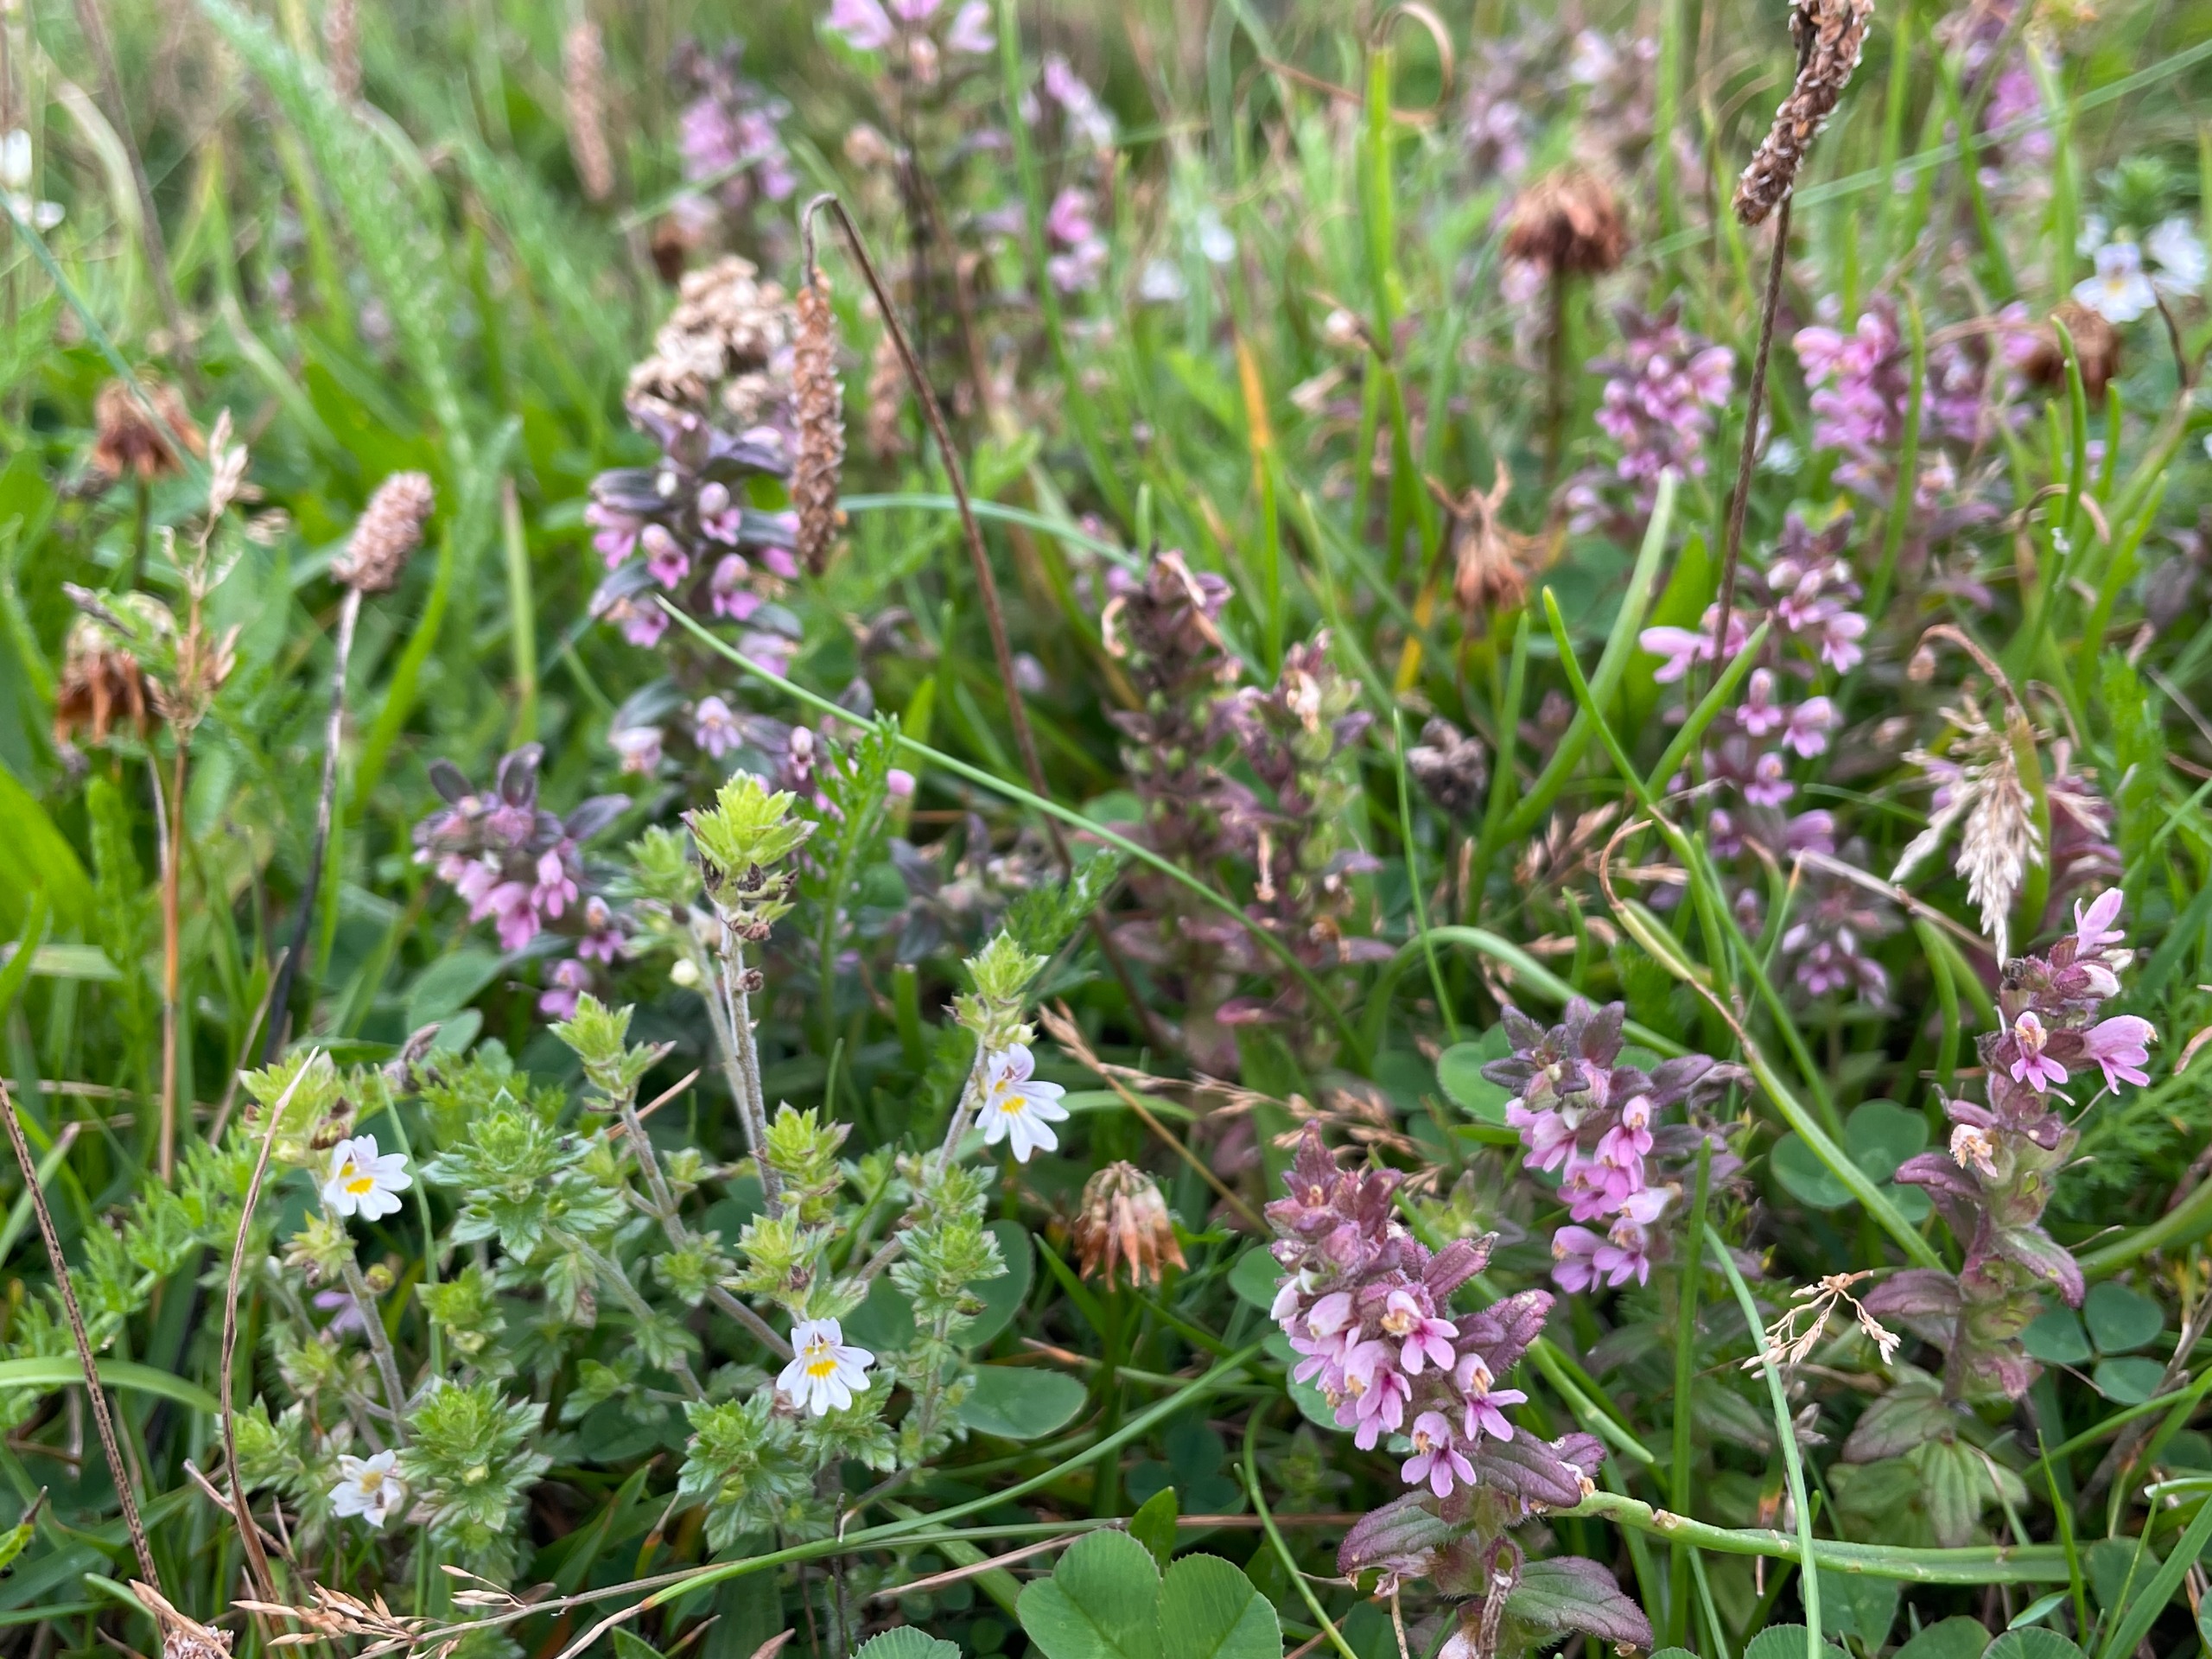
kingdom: Plantae
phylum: Tracheophyta
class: Magnoliopsida
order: Lamiales
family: Orobanchaceae
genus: Odontites
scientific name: Odontites
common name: Rødtopslægten
